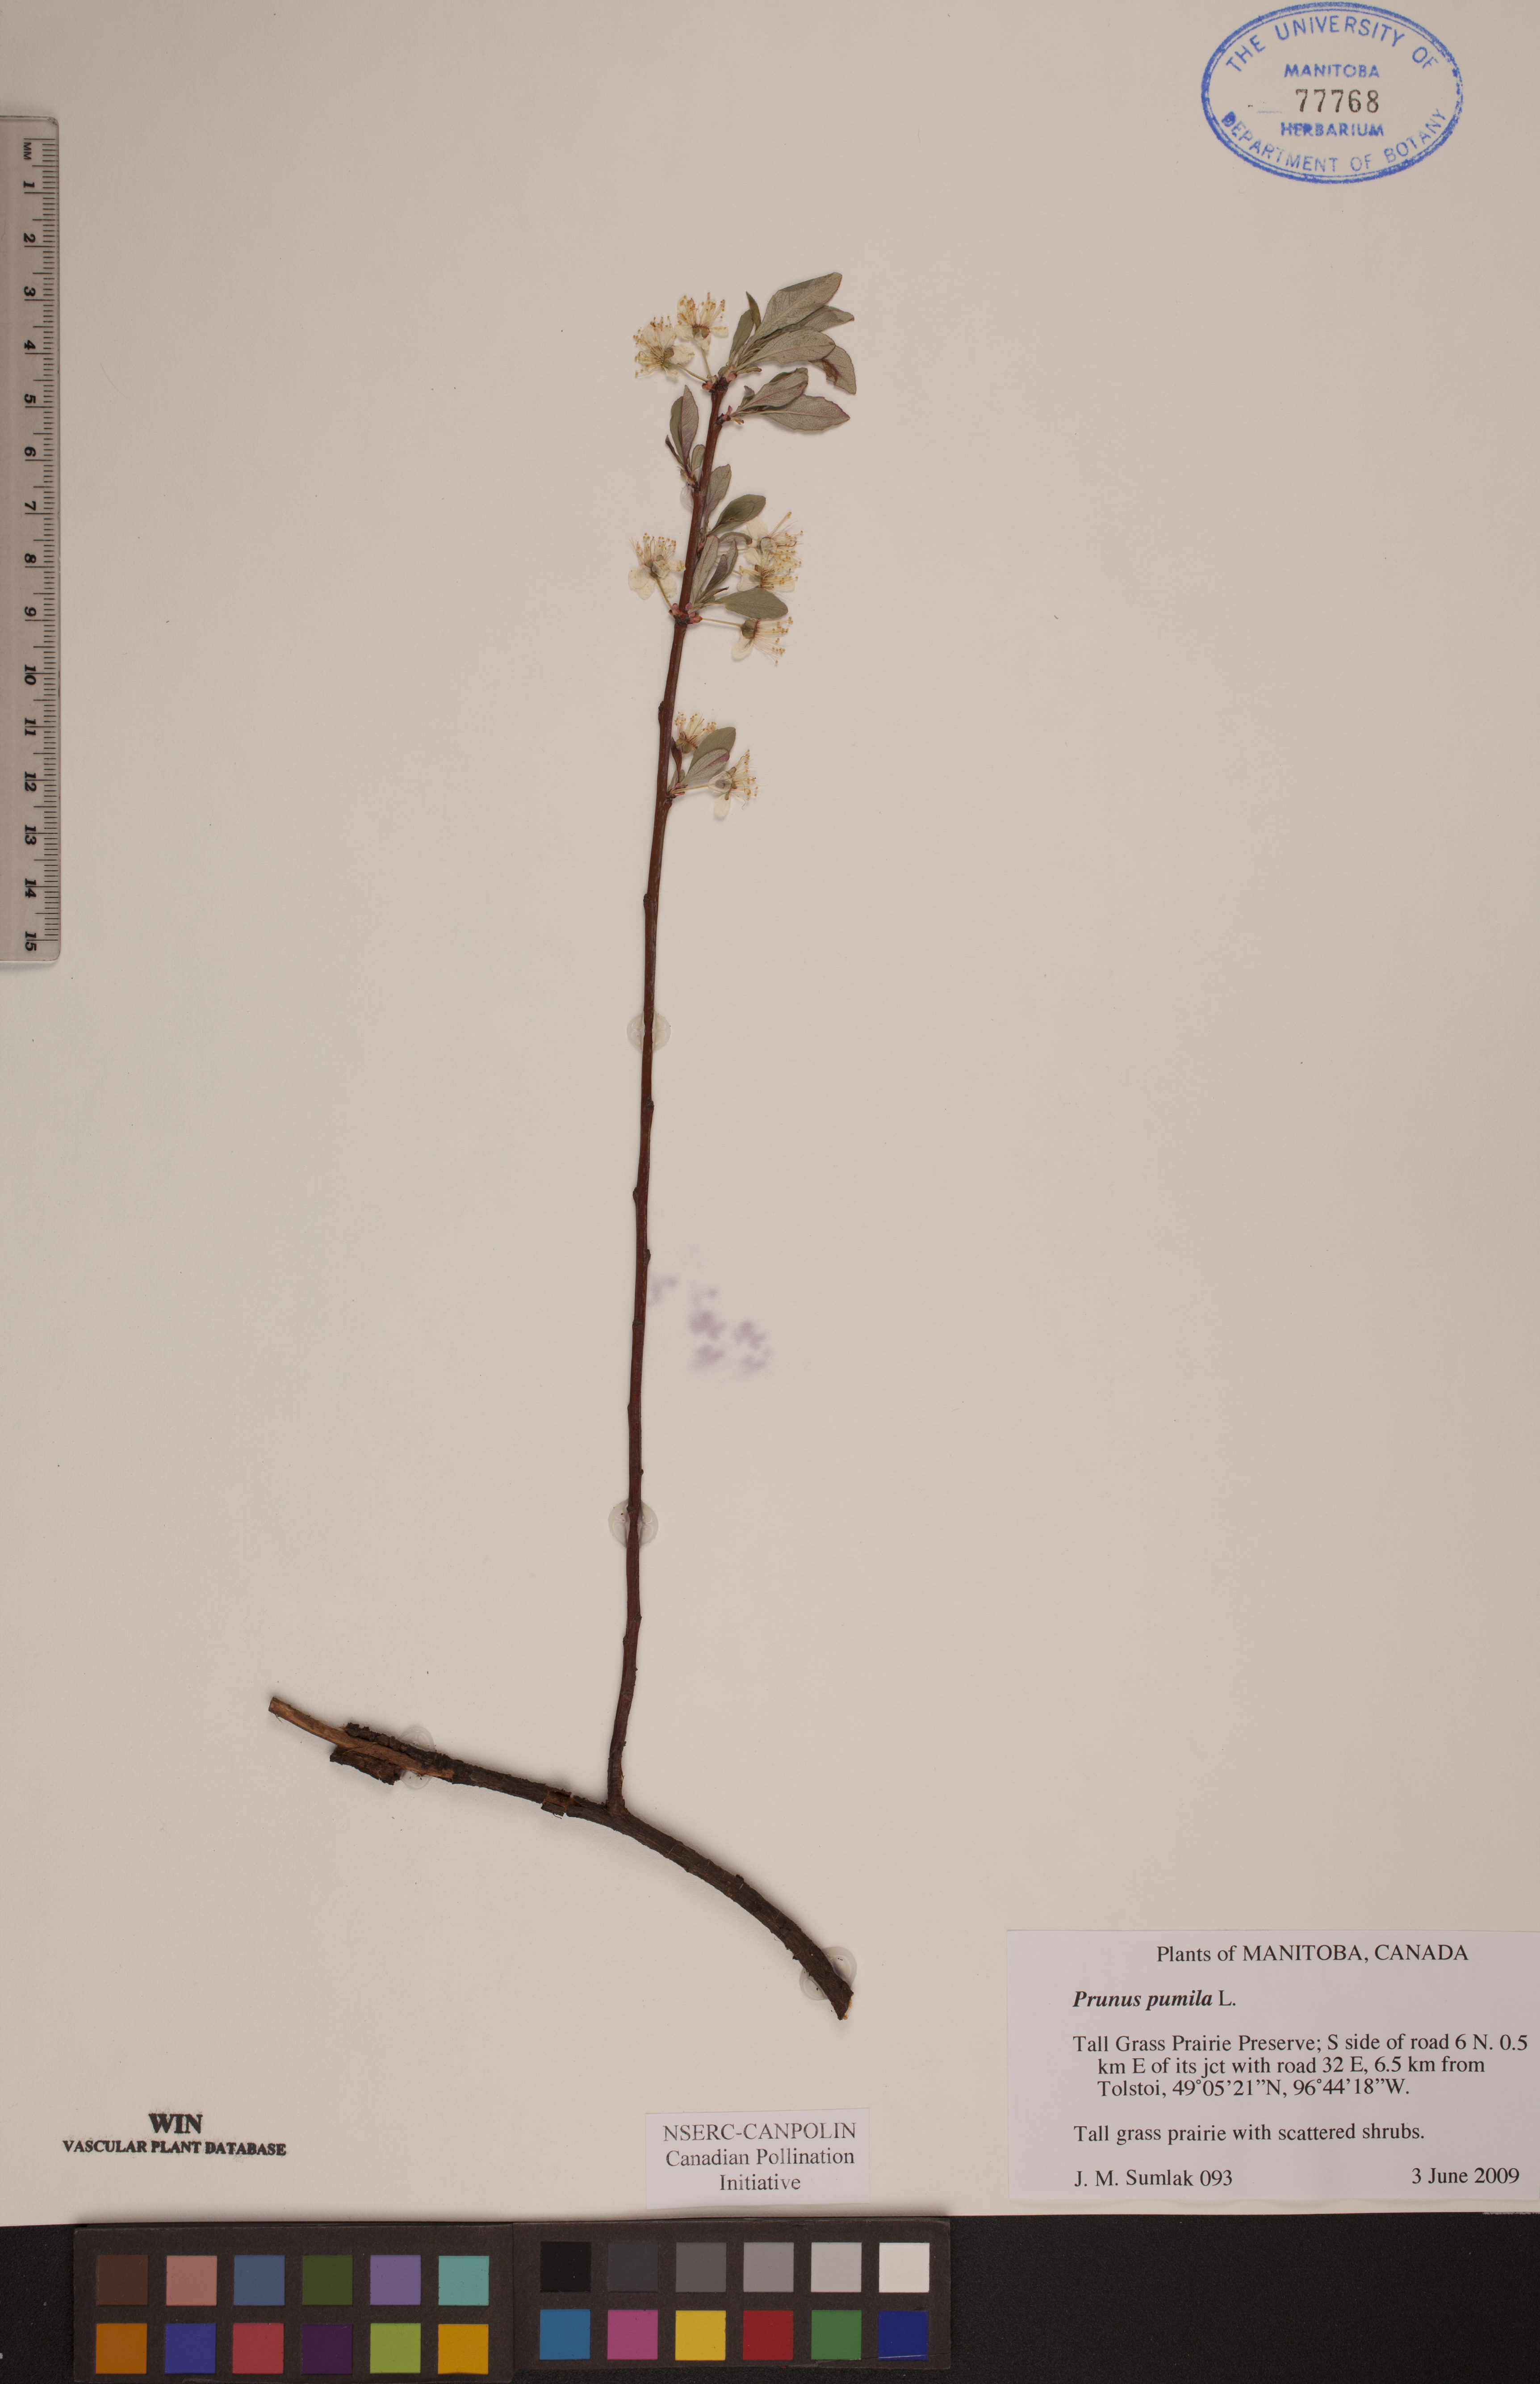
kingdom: Plantae
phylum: Tracheophyta
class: Magnoliopsida
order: Rosales
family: Rosaceae
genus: Prunus
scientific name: Prunus pumila
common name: Dwarf cherry
